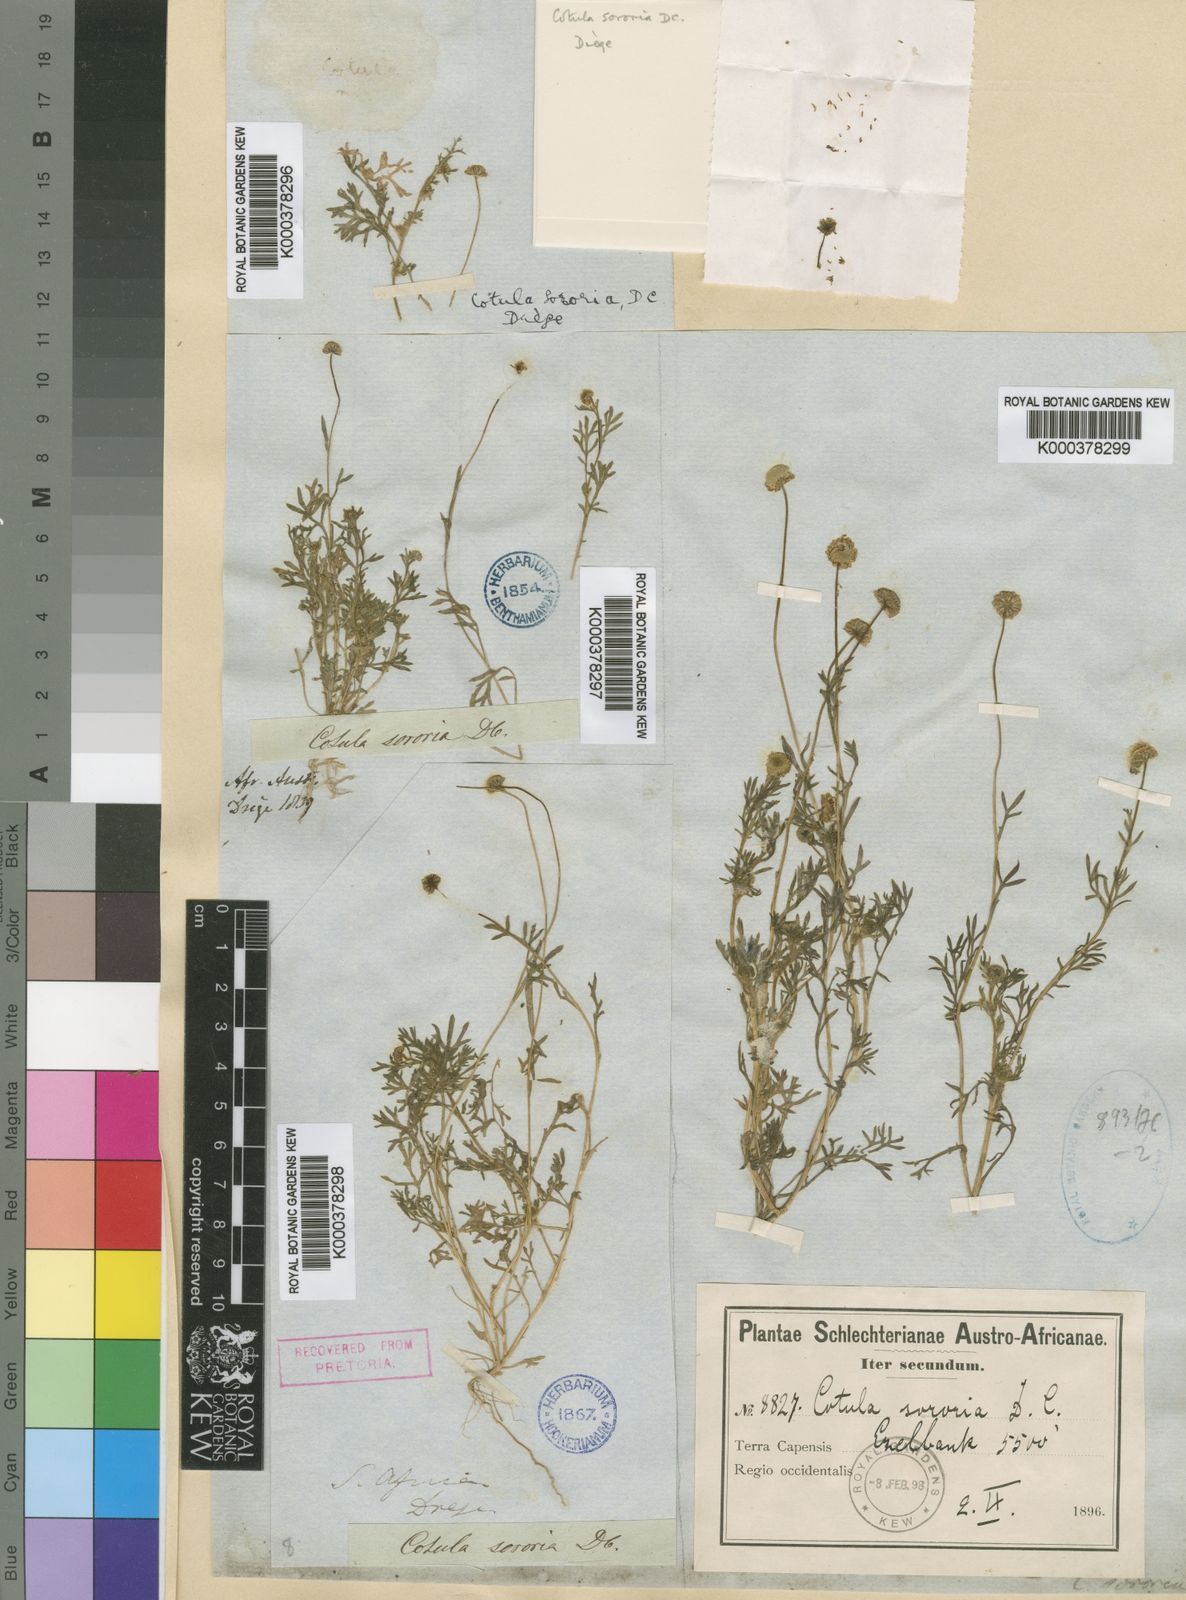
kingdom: Plantae
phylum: Tracheophyta
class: Magnoliopsida
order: Asterales
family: Asteraceae
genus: Cotula
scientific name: Cotula sororia
